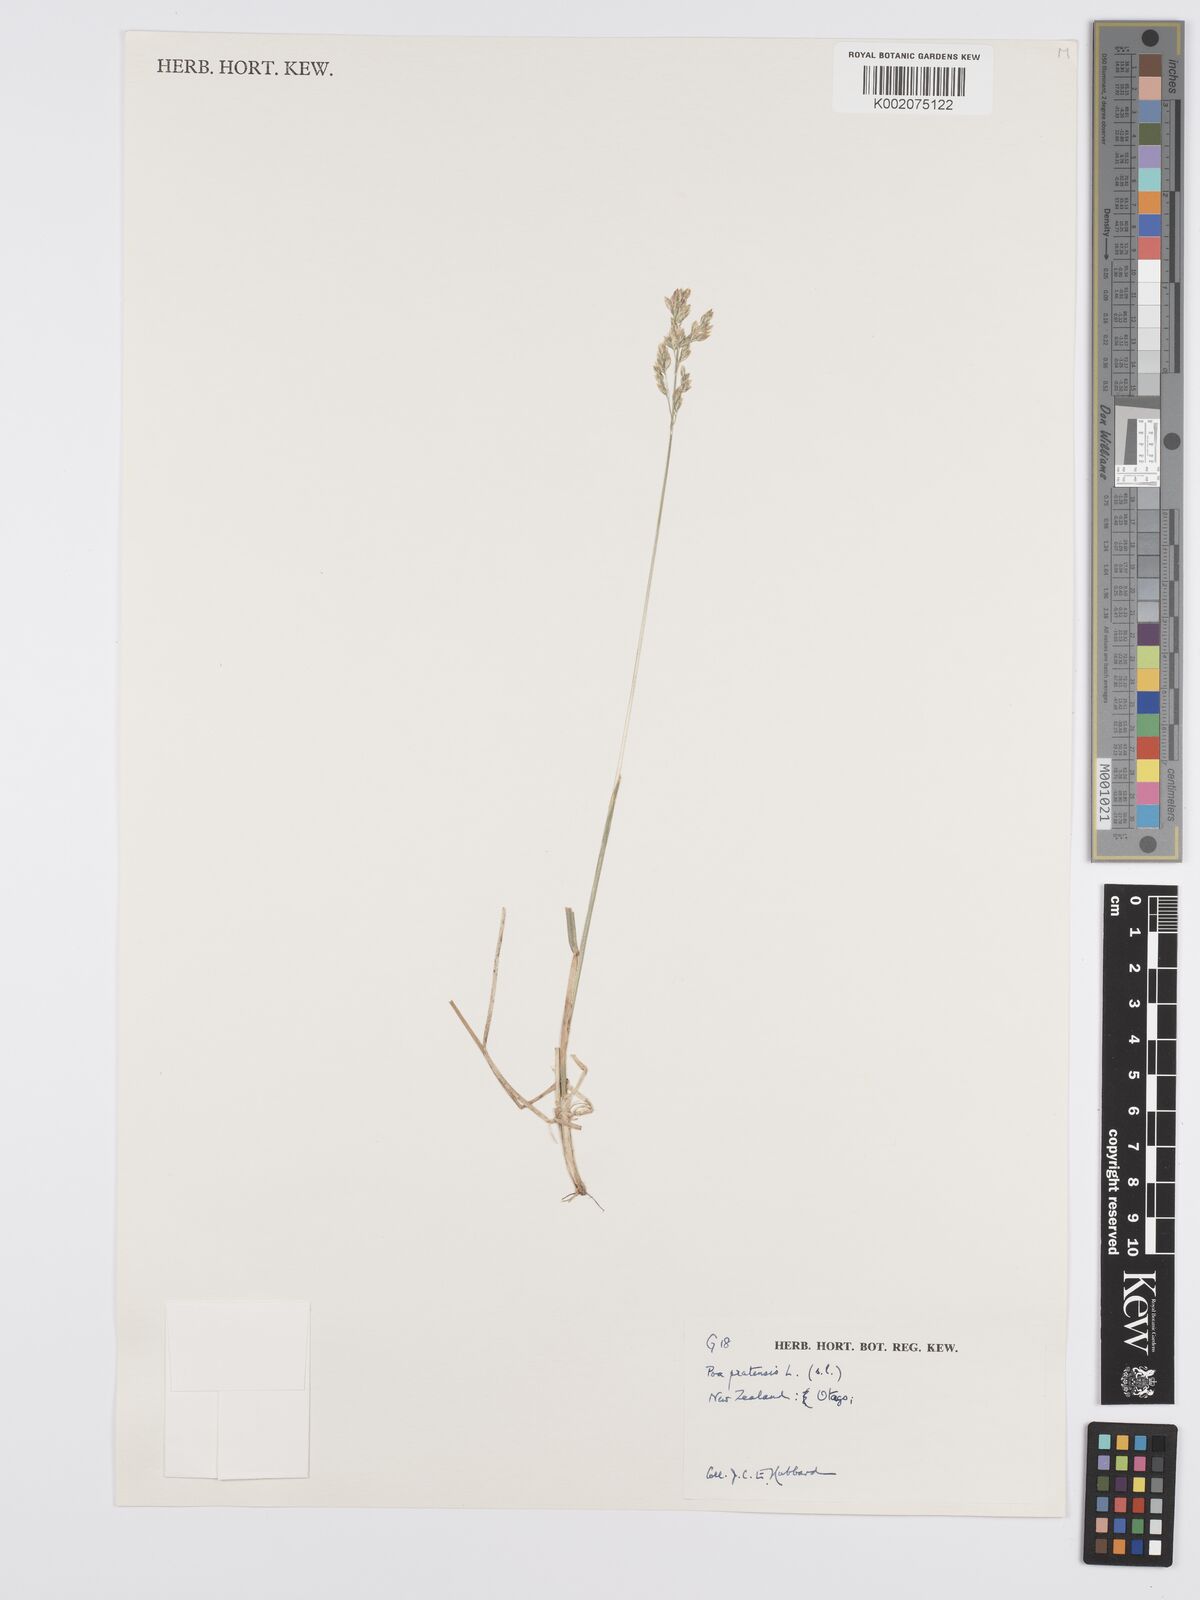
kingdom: Plantae
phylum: Tracheophyta
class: Liliopsida
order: Poales
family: Poaceae
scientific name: Poaceae
